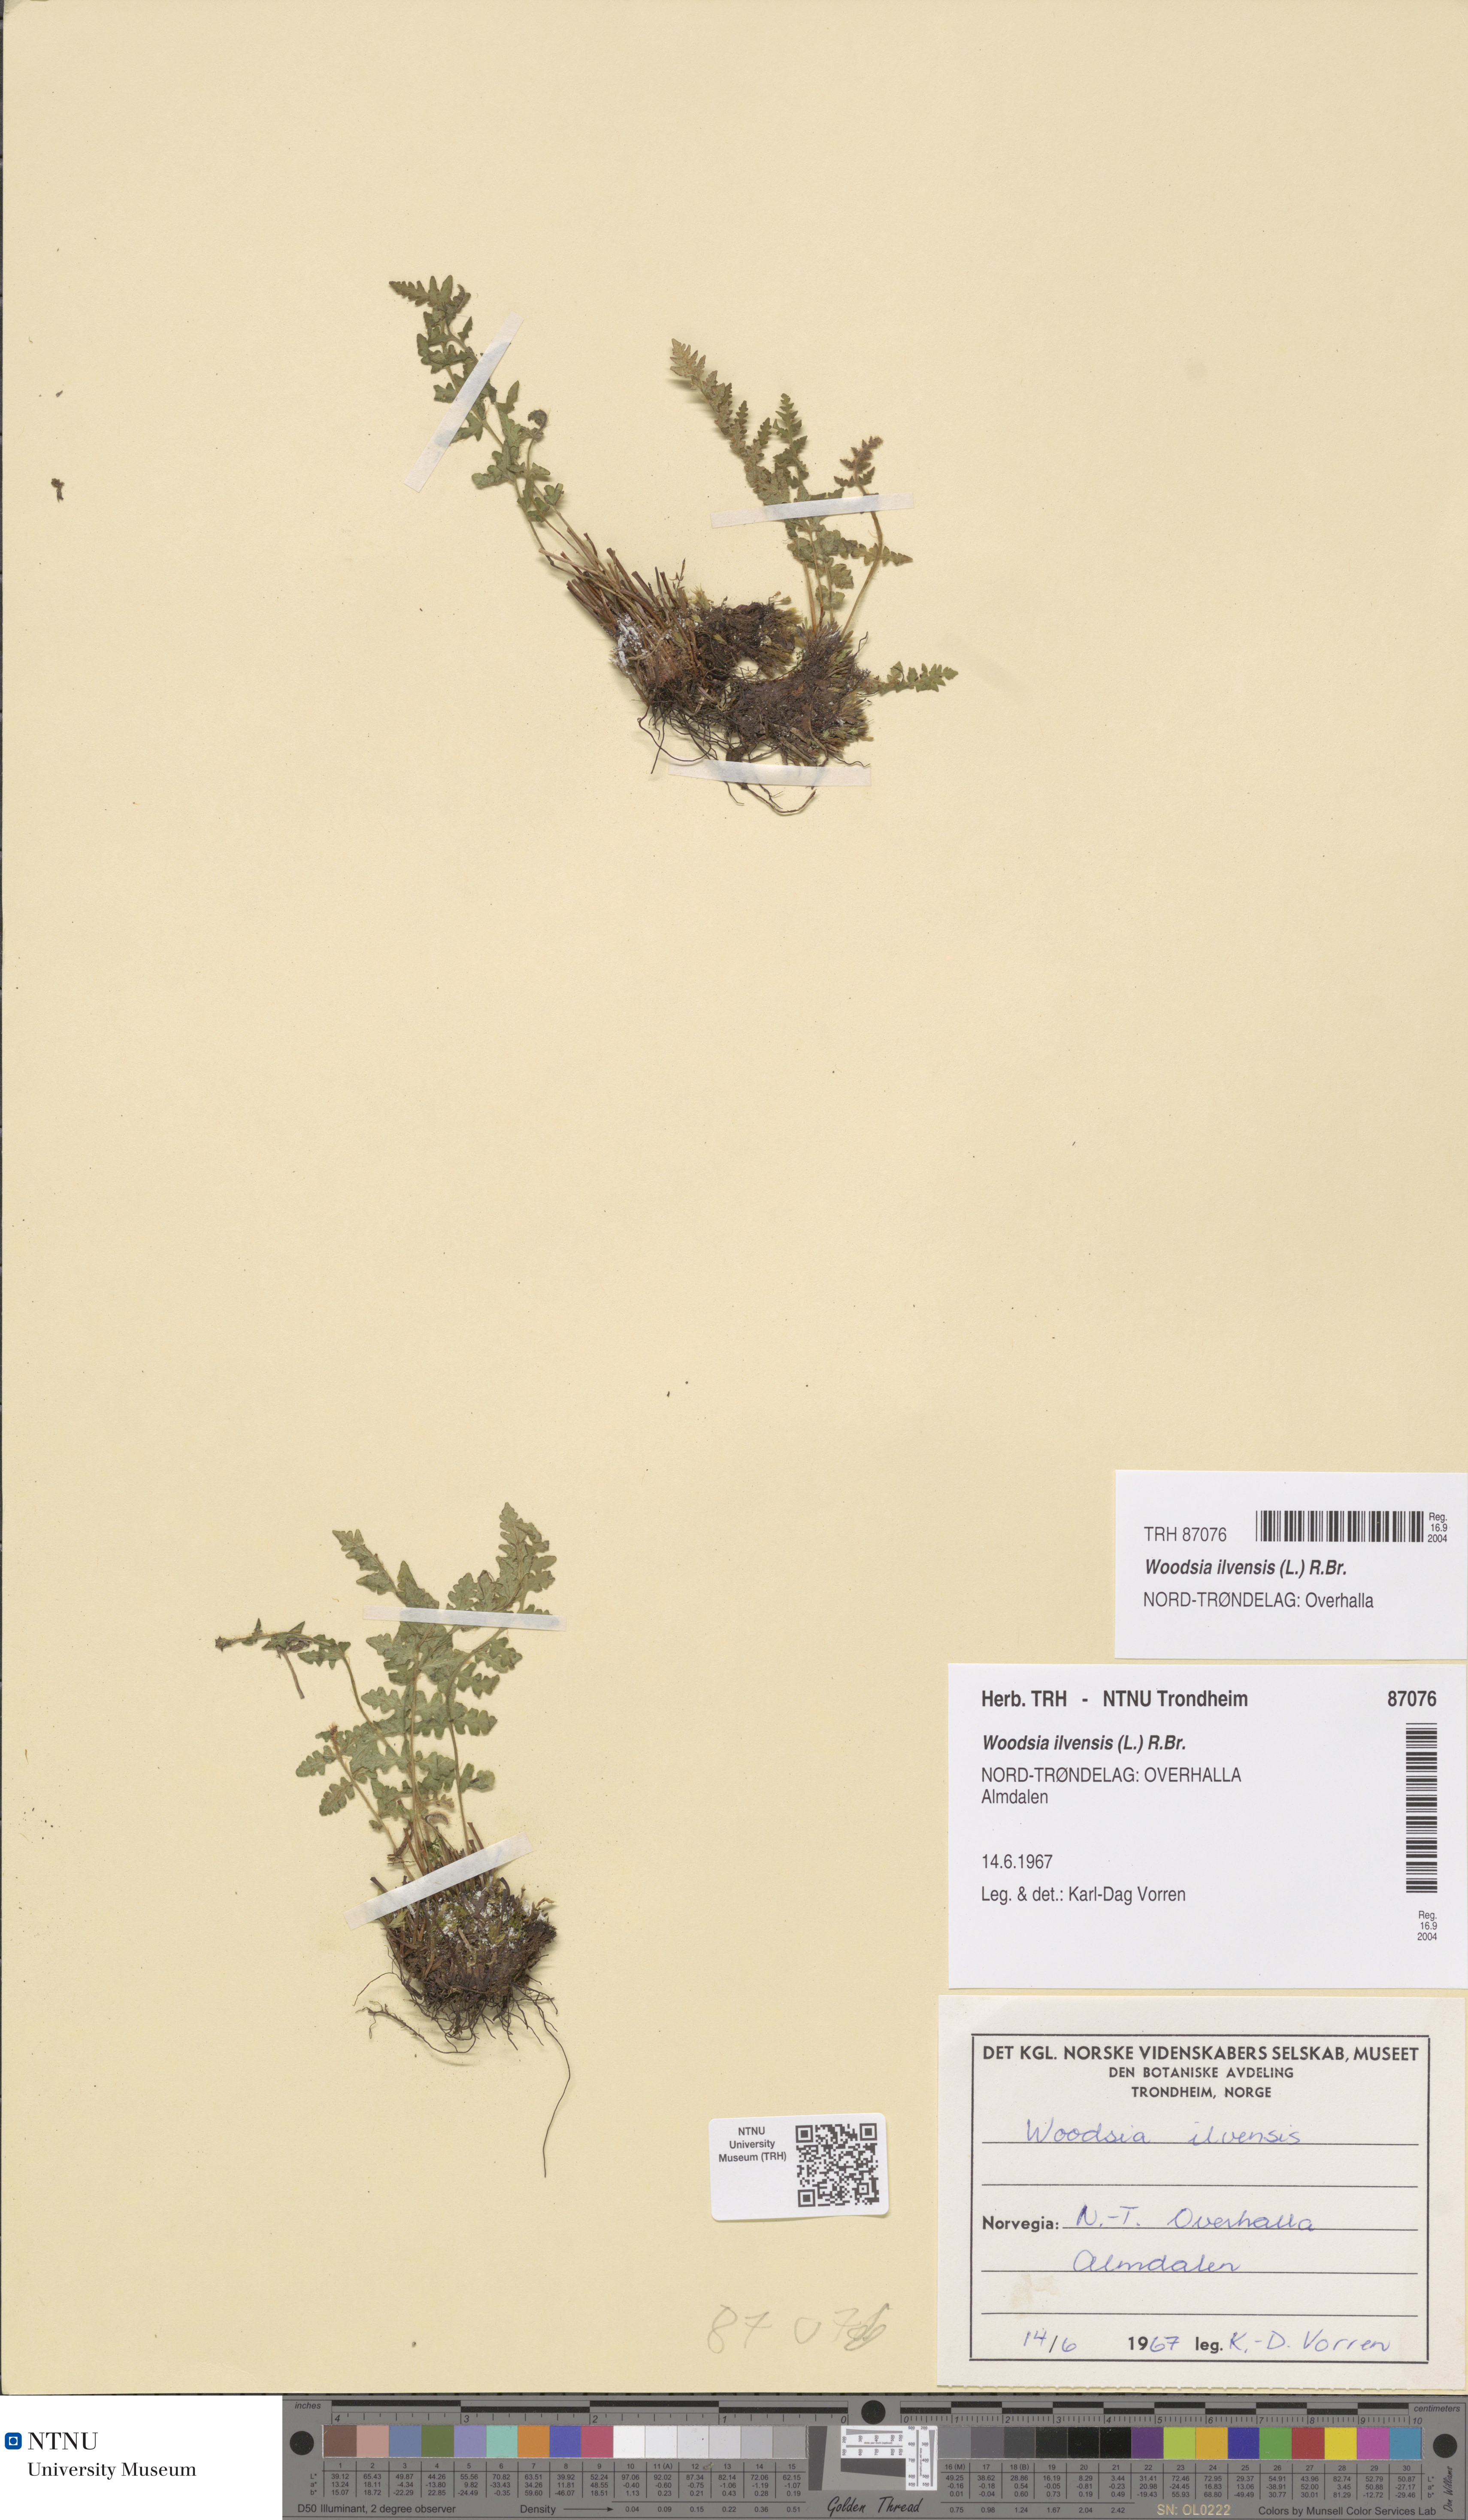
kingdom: Plantae
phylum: Tracheophyta
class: Polypodiopsida
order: Polypodiales
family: Woodsiaceae
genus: Woodsia
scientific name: Woodsia ilvensis
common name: Fragrant woodsia
